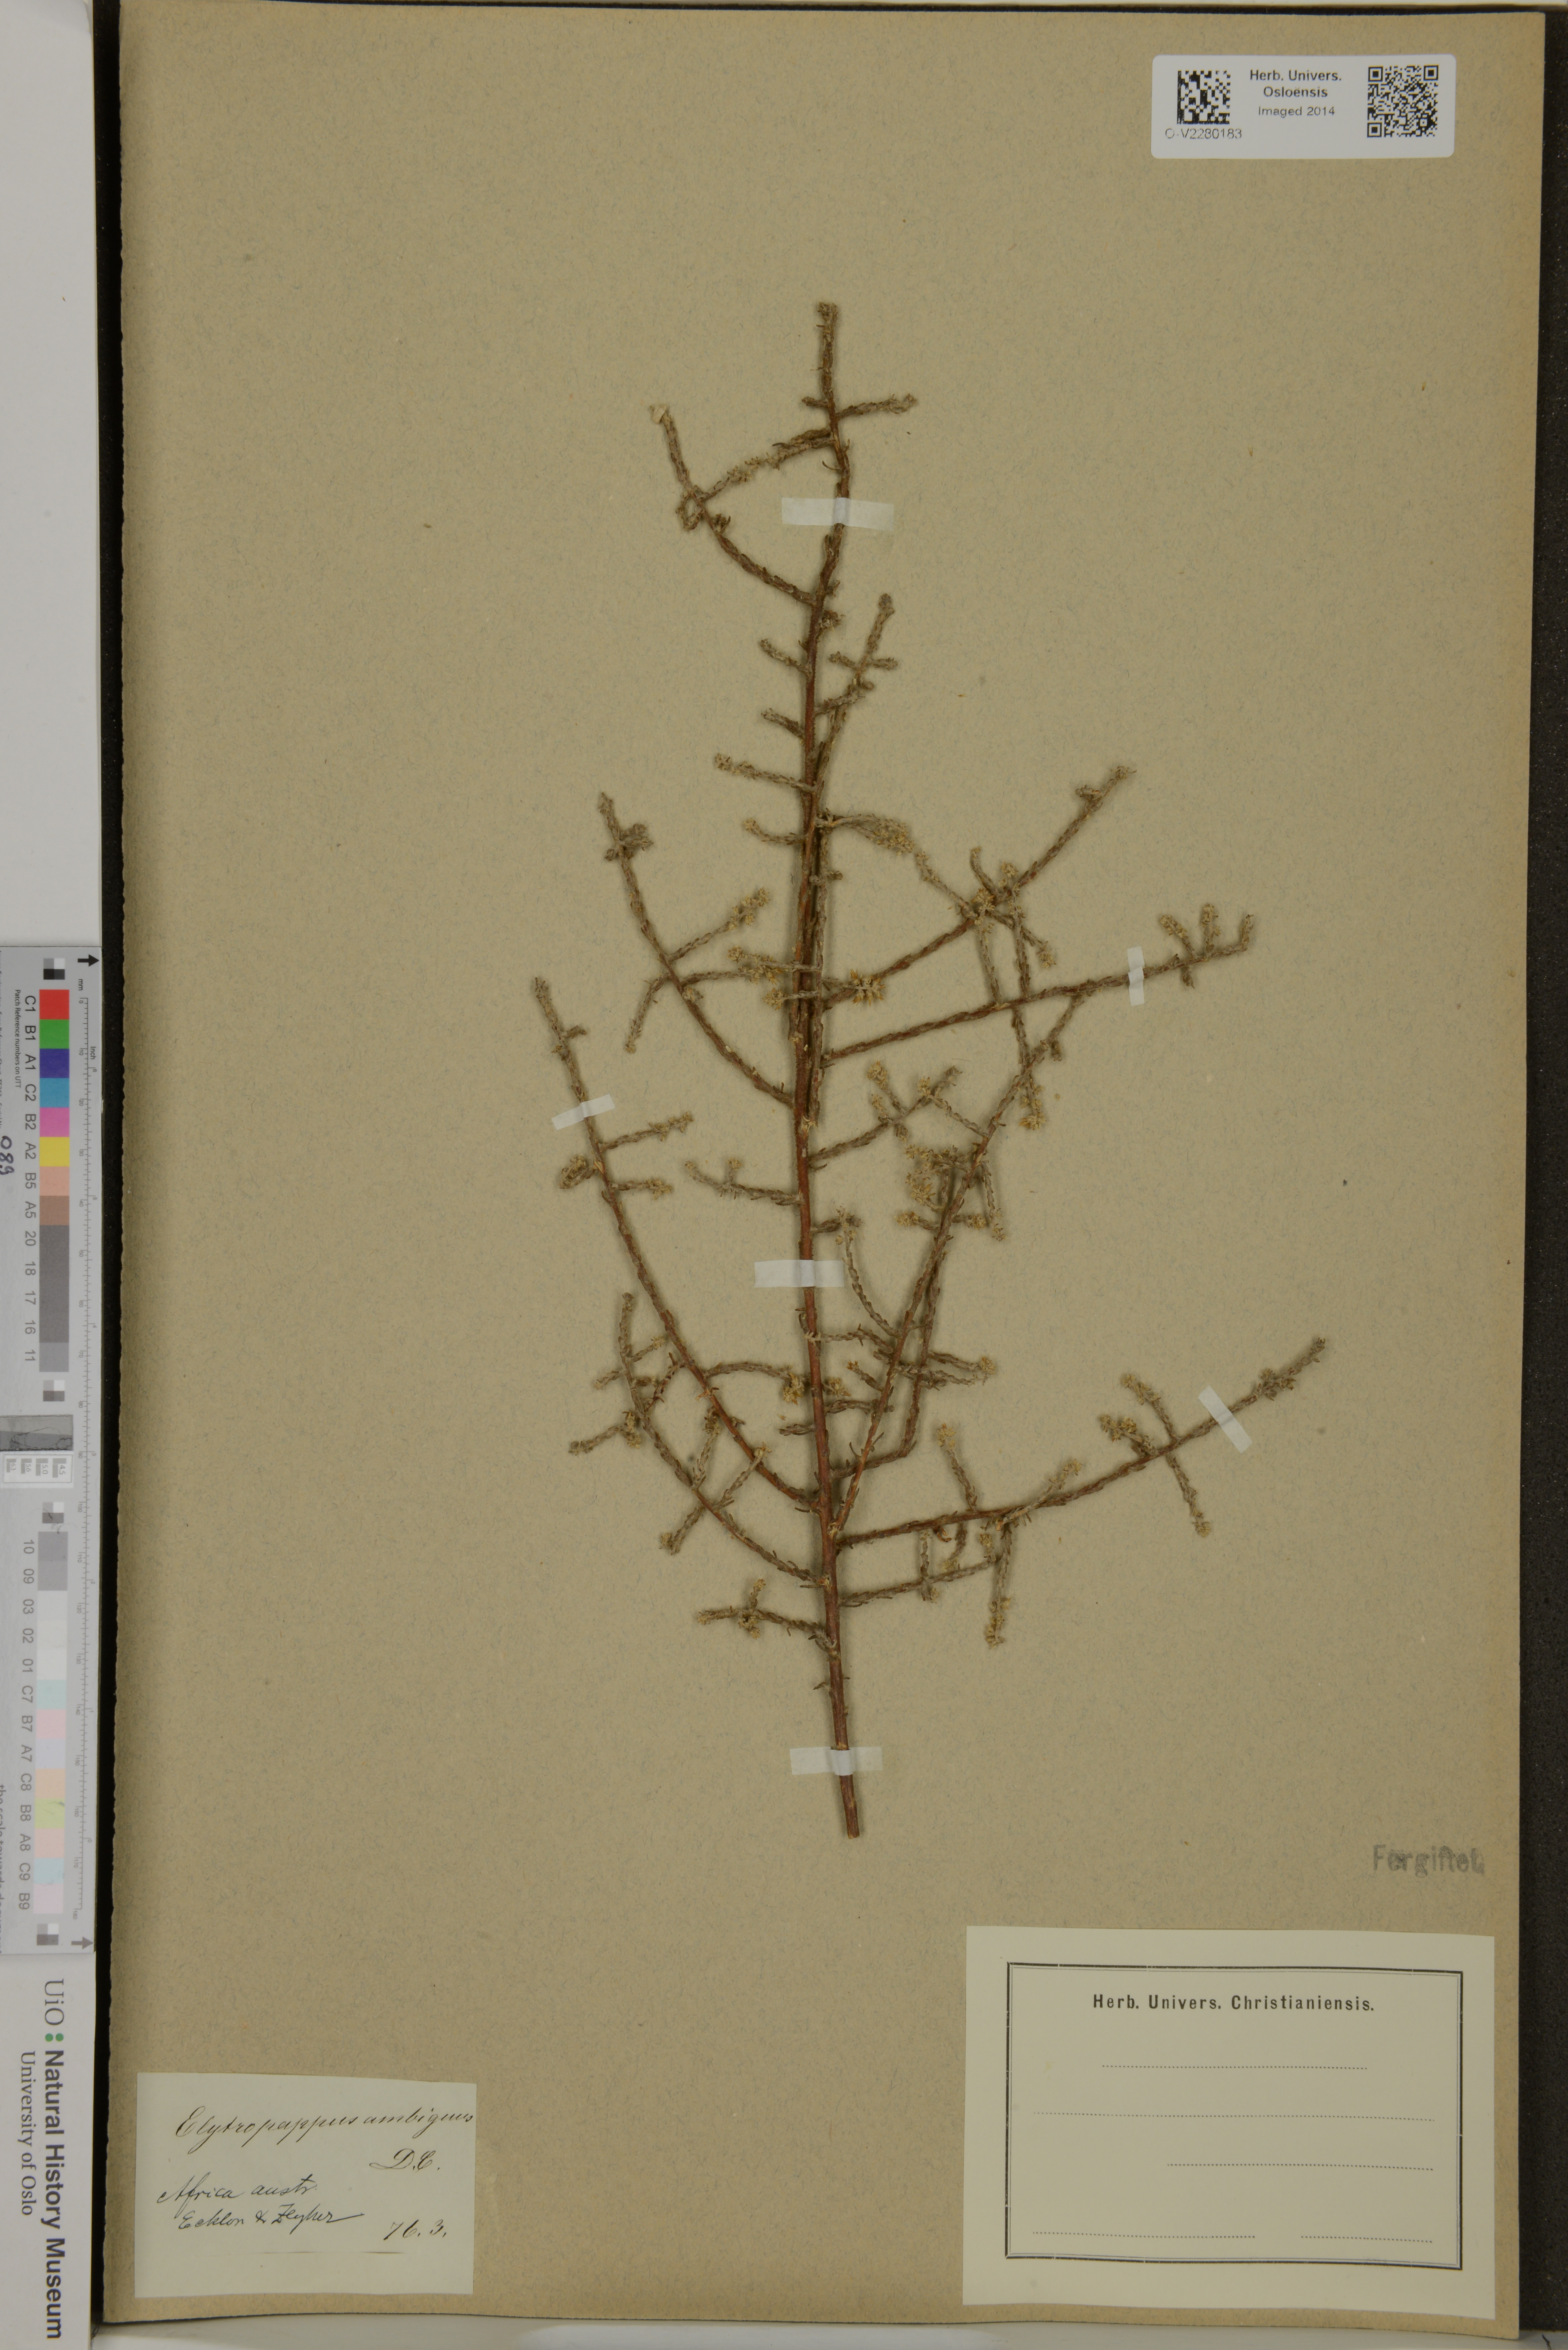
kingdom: Plantae
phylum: Tracheophyta
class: Magnoliopsida
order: Asterales
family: Asteraceae
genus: Myrovernix
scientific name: Myrovernix gnaphaloides
